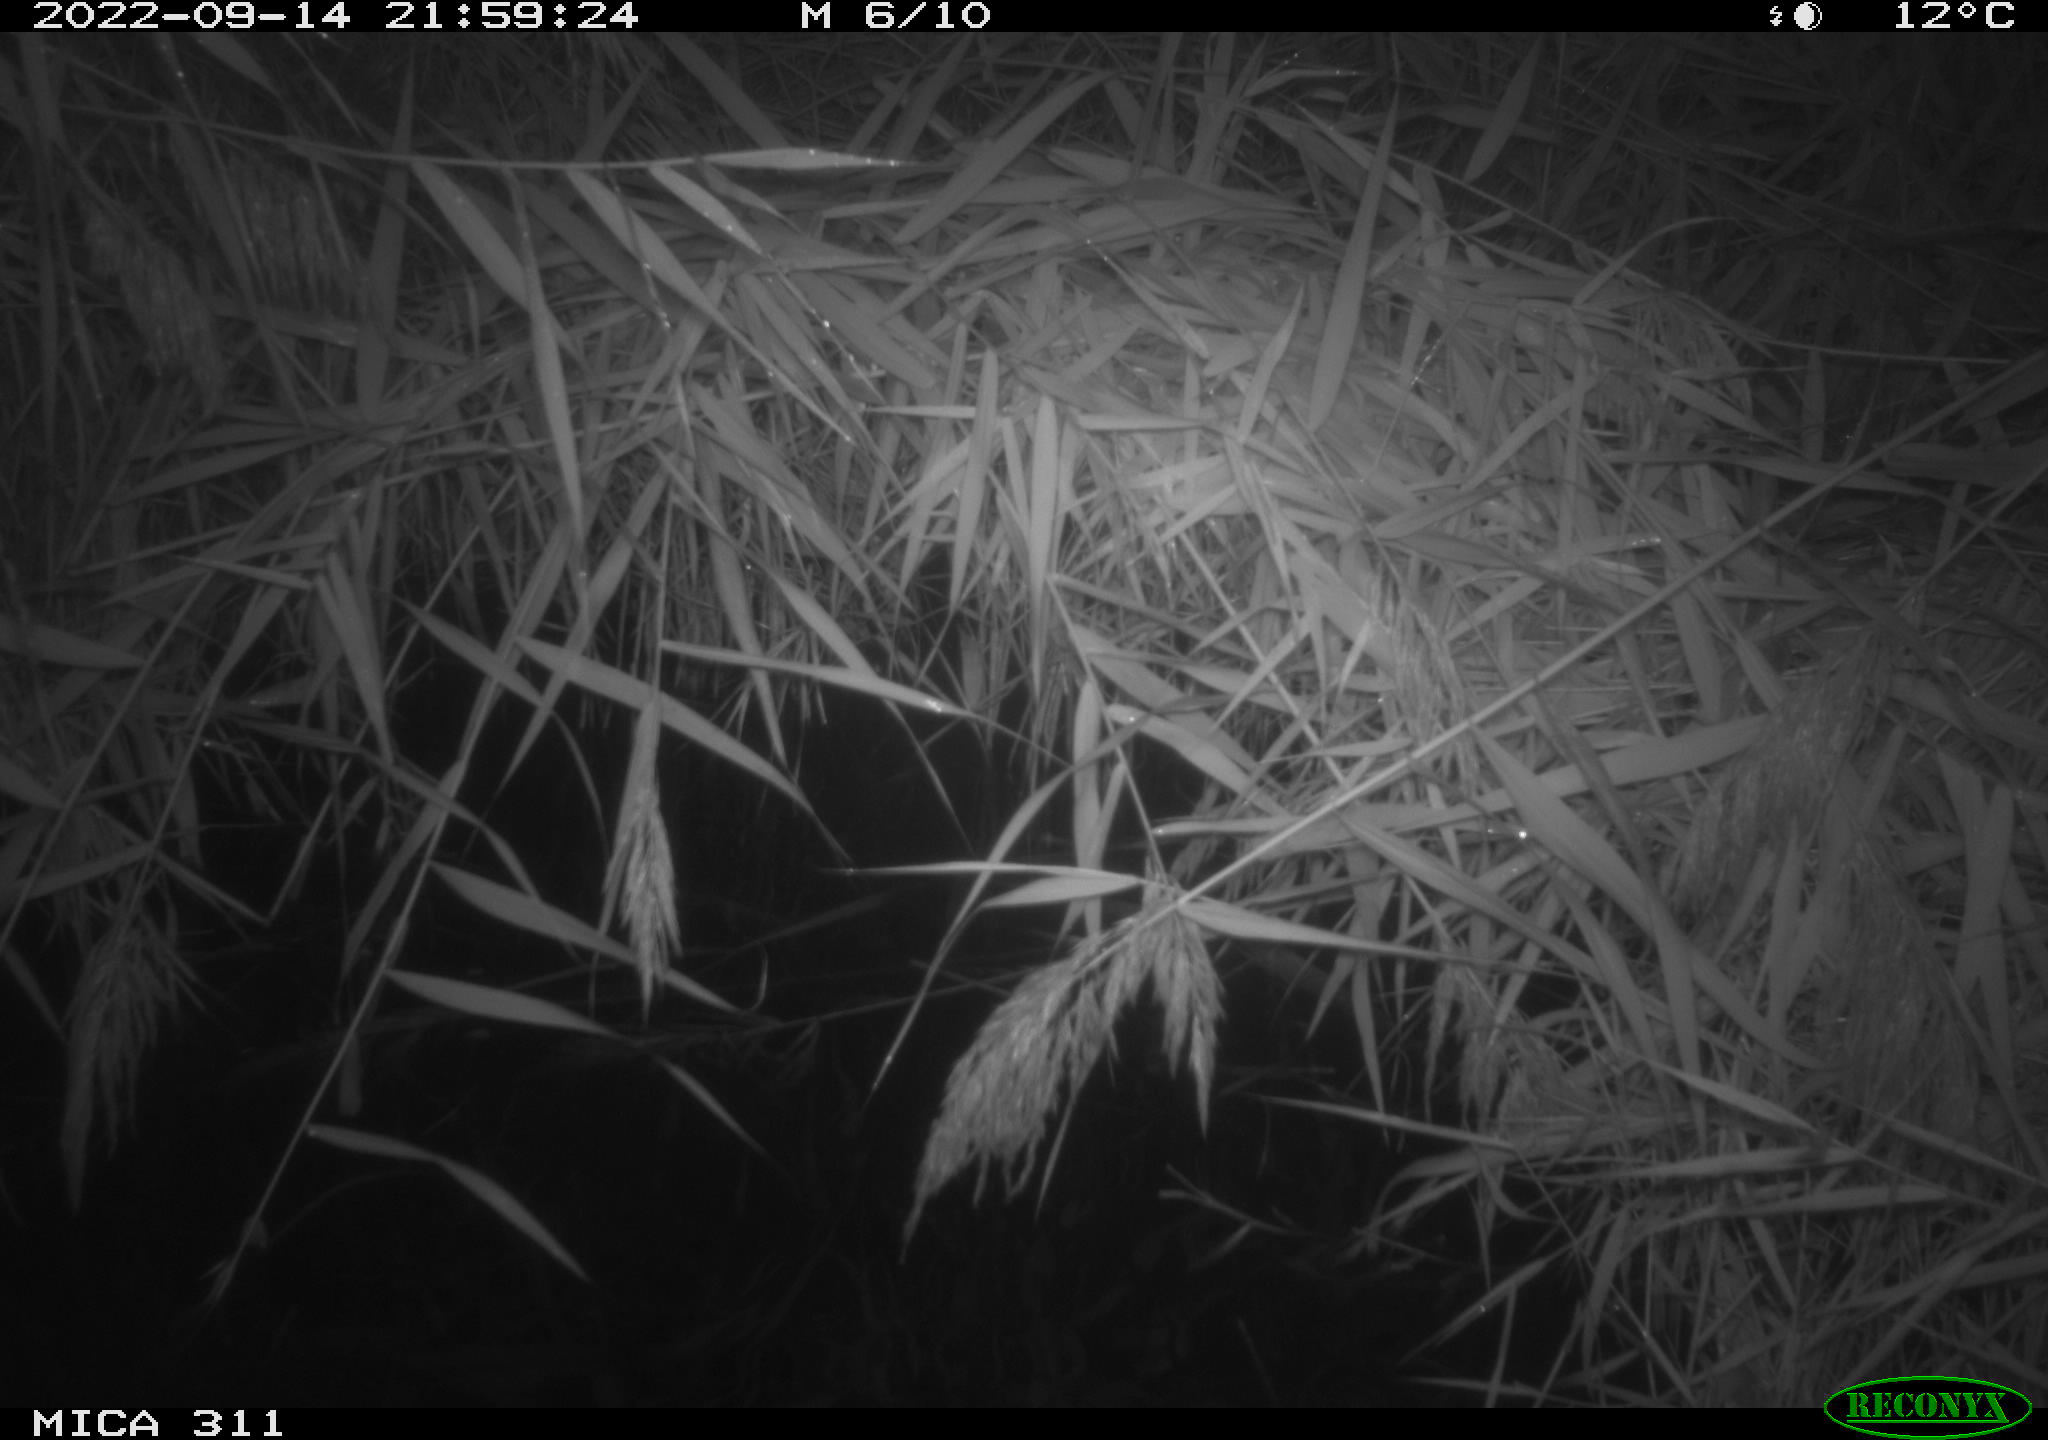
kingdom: Animalia
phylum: Chordata
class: Mammalia
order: Rodentia
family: Muridae
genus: Rattus
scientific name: Rattus norvegicus
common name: Brown rat
